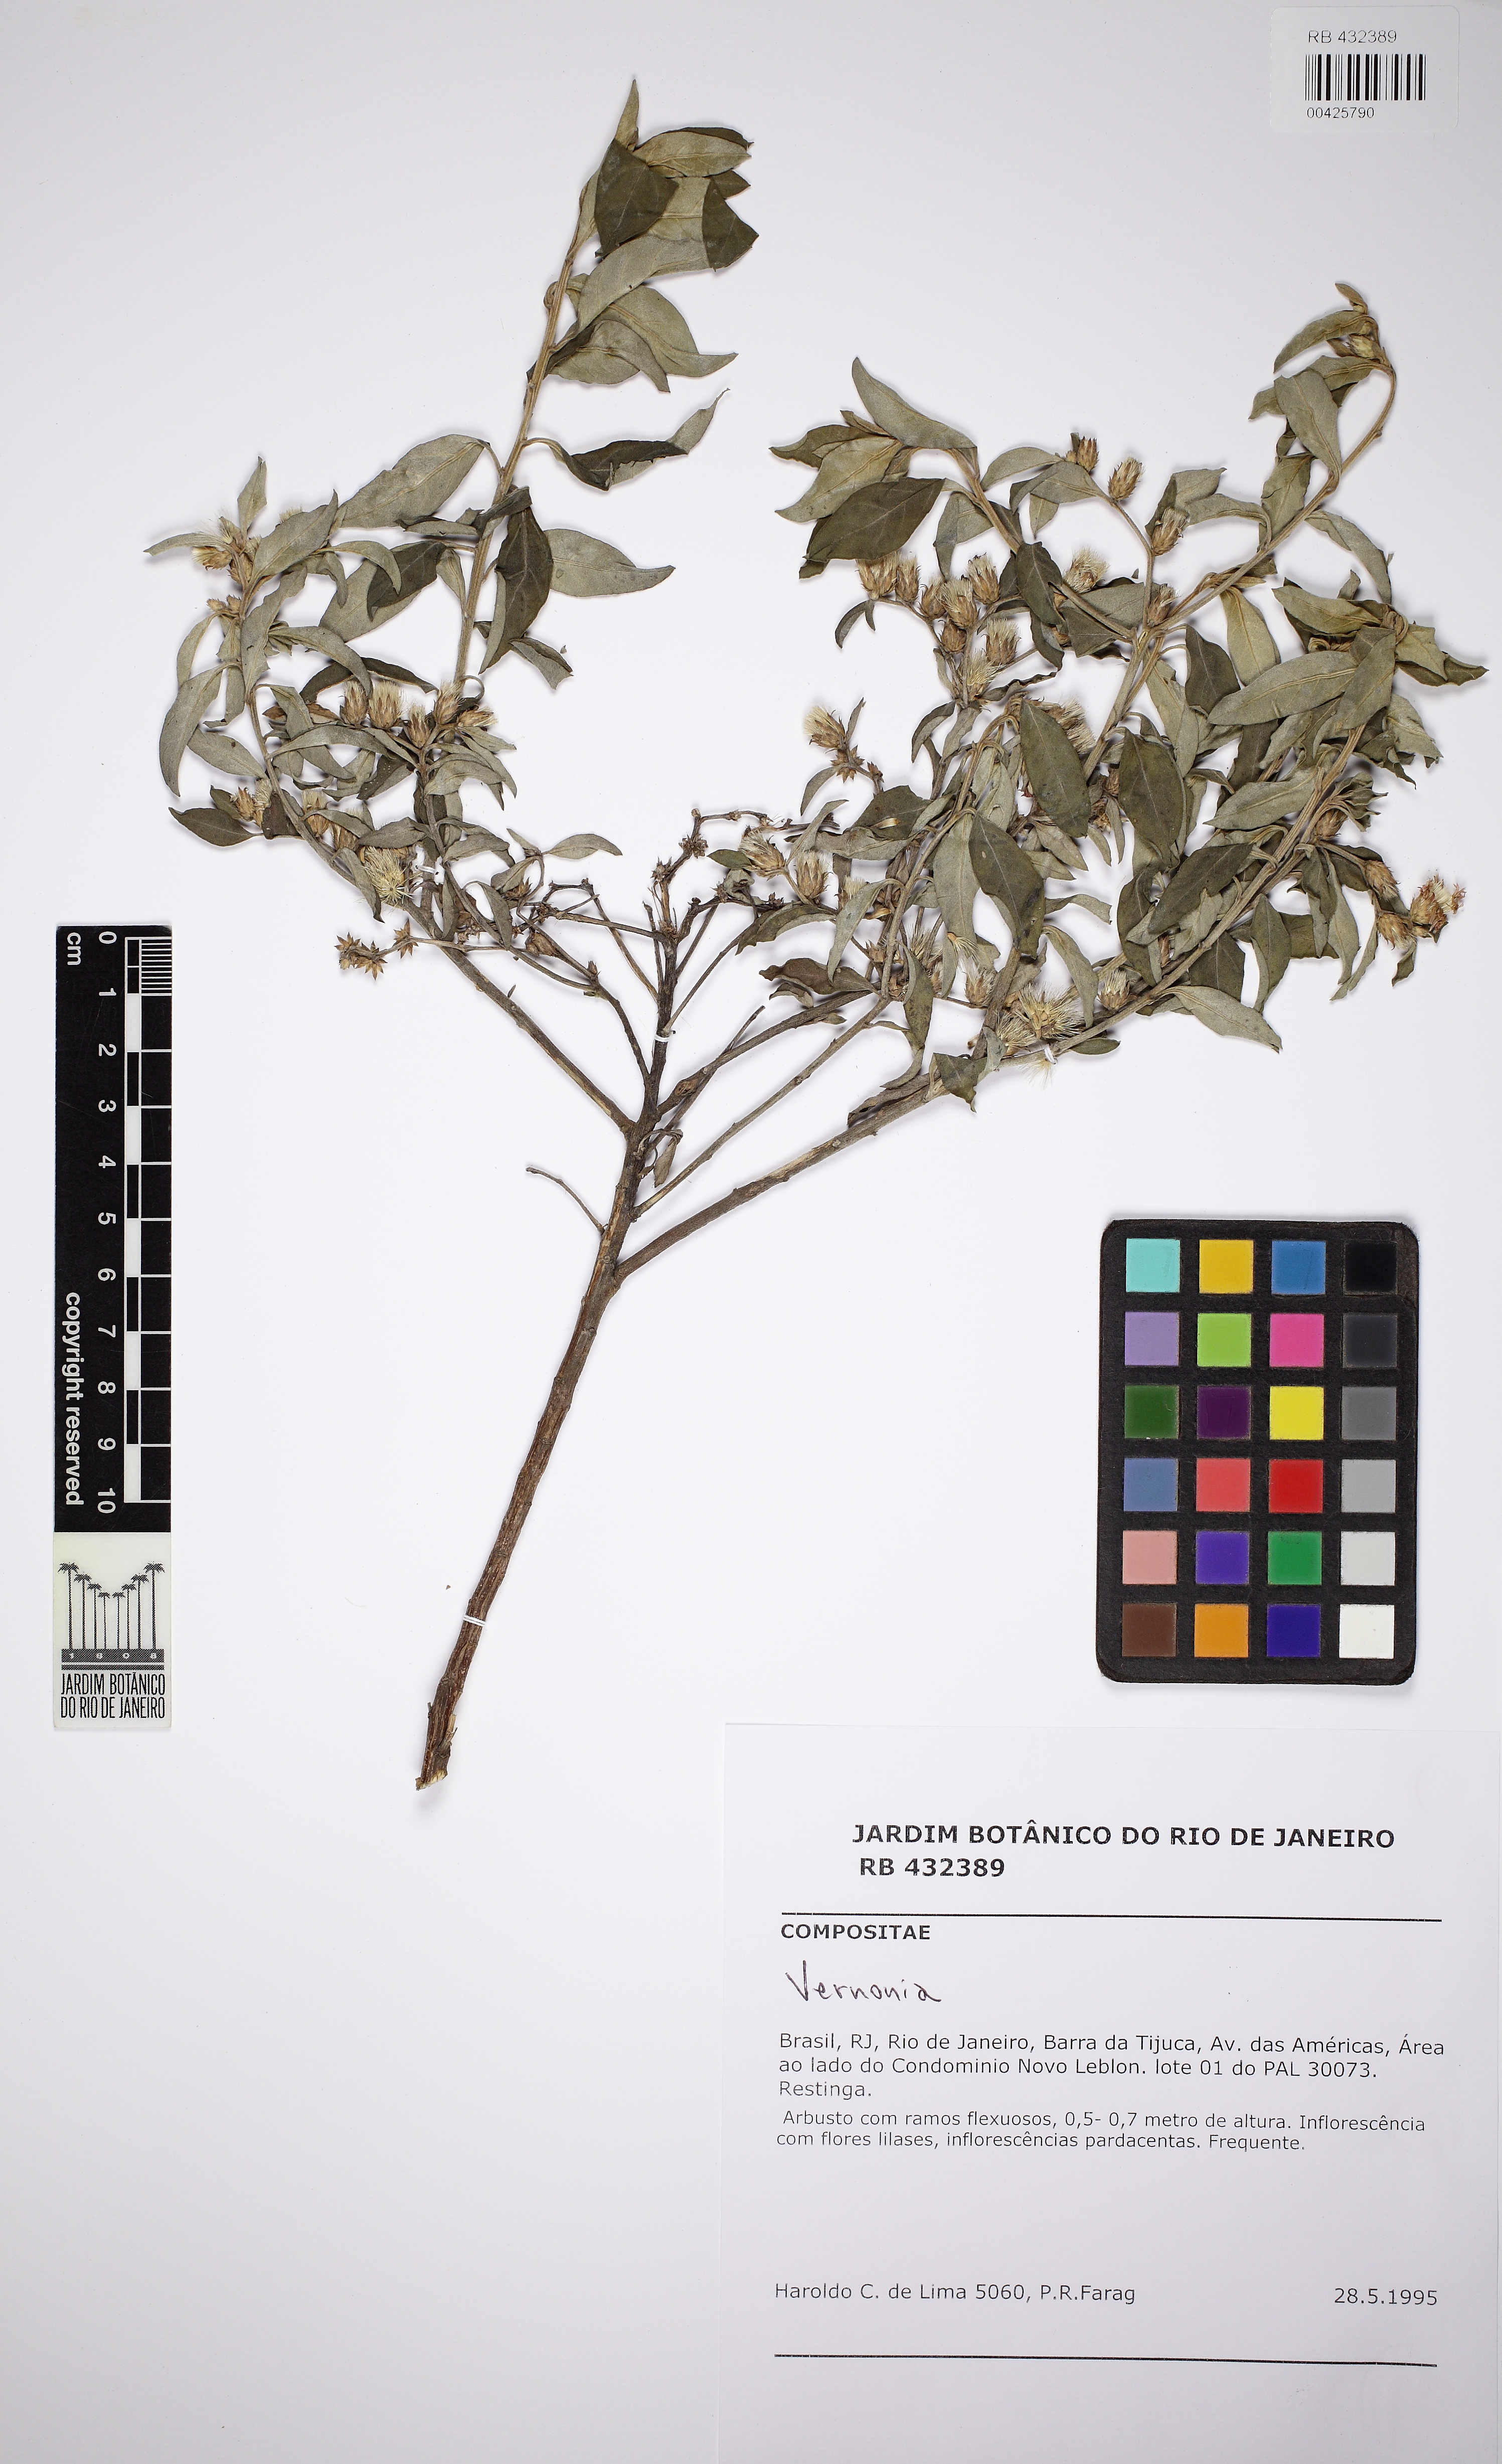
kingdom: Plantae
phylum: Tracheophyta
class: Magnoliopsida
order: Asterales
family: Asteraceae
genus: Vernonia
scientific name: Vernonia
